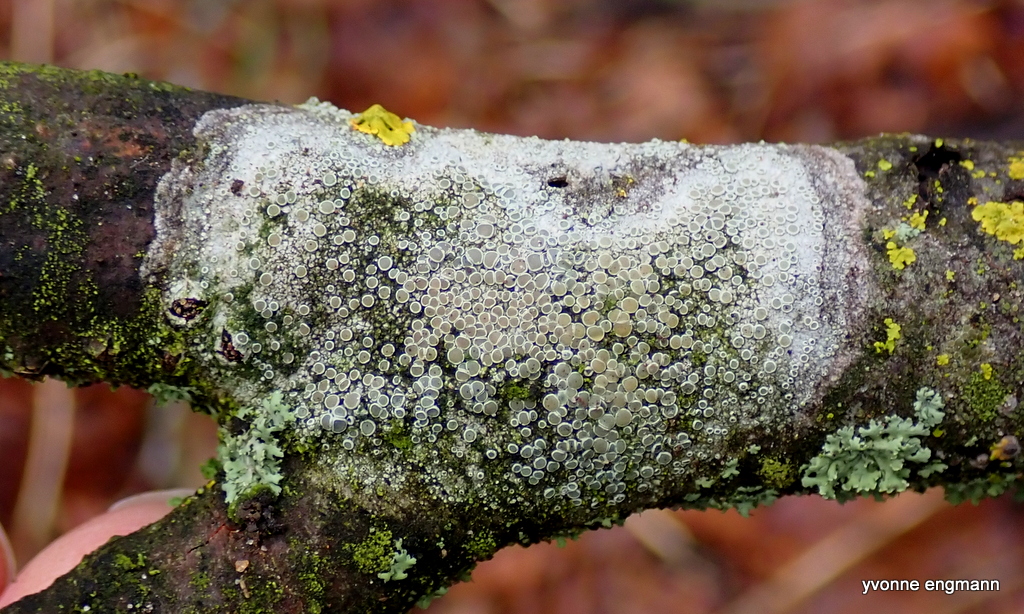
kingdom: Fungi
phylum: Ascomycota
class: Lecanoromycetes
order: Lecanorales
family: Lecanoraceae
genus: Lecanora
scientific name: Lecanora chlarotera
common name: brun kantskivelav
